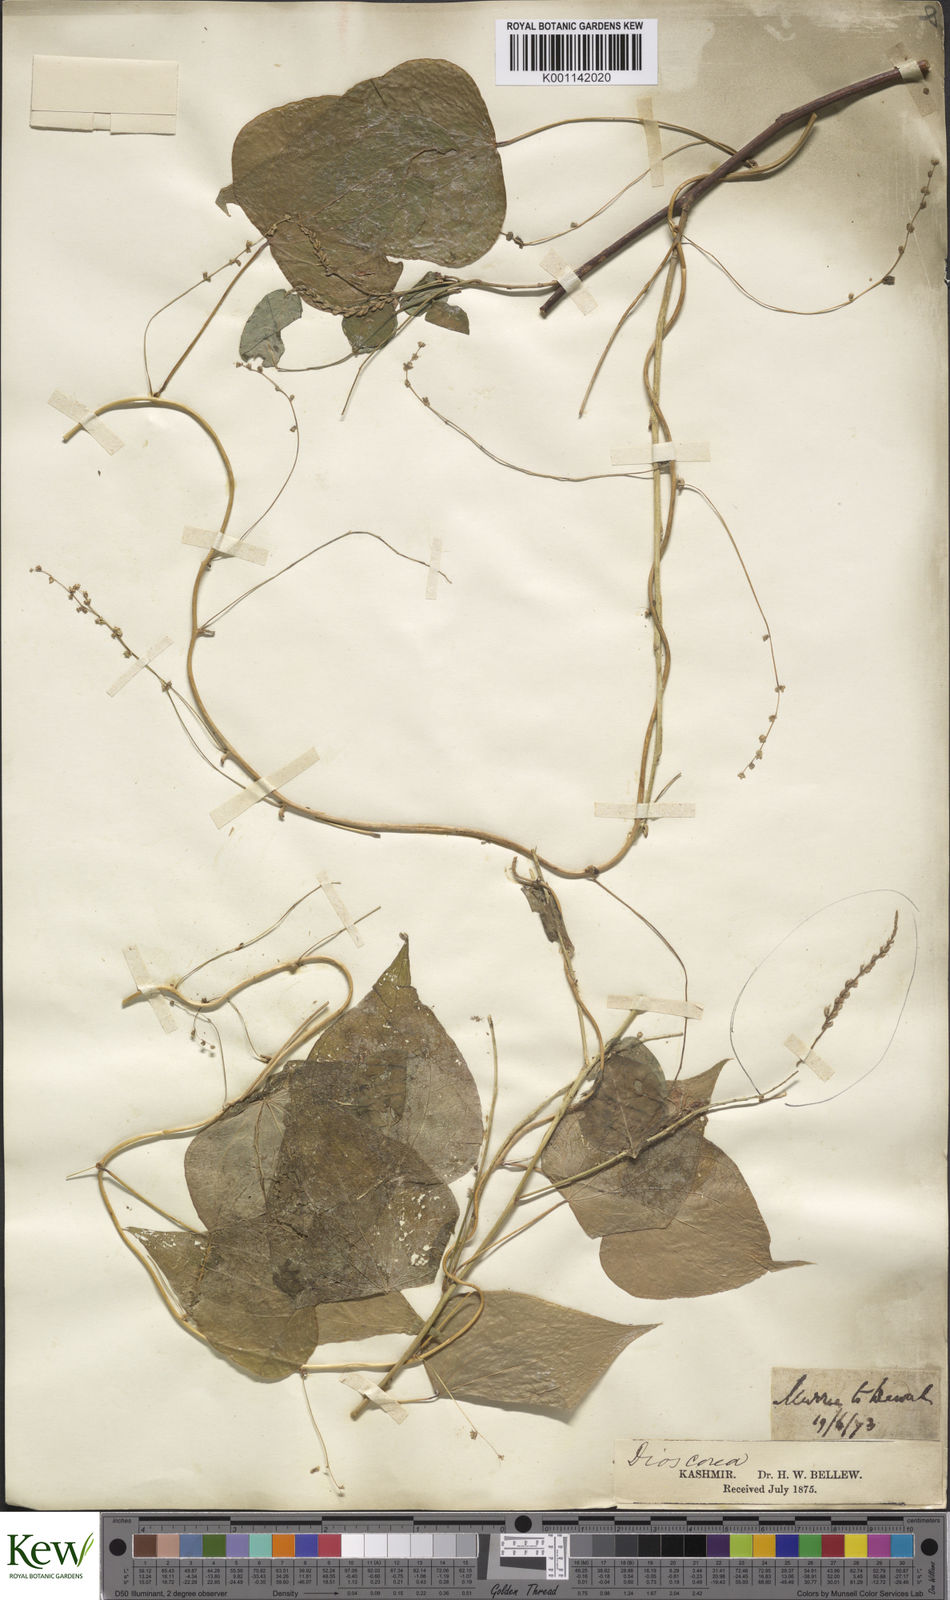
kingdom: Plantae
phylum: Tracheophyta
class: Liliopsida
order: Dioscoreales
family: Dioscoreaceae
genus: Dioscorea
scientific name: Dioscorea deltoidea
